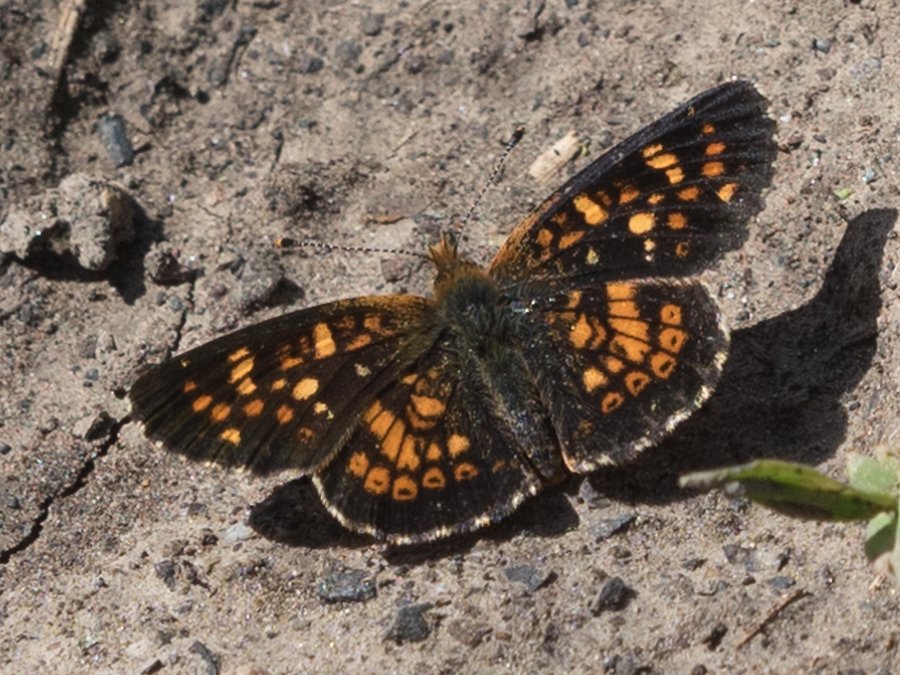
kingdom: Animalia
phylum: Arthropoda
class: Insecta
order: Lepidoptera
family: Nymphalidae
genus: Phyciodes
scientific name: Phyciodes tharos
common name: Field Crescent
